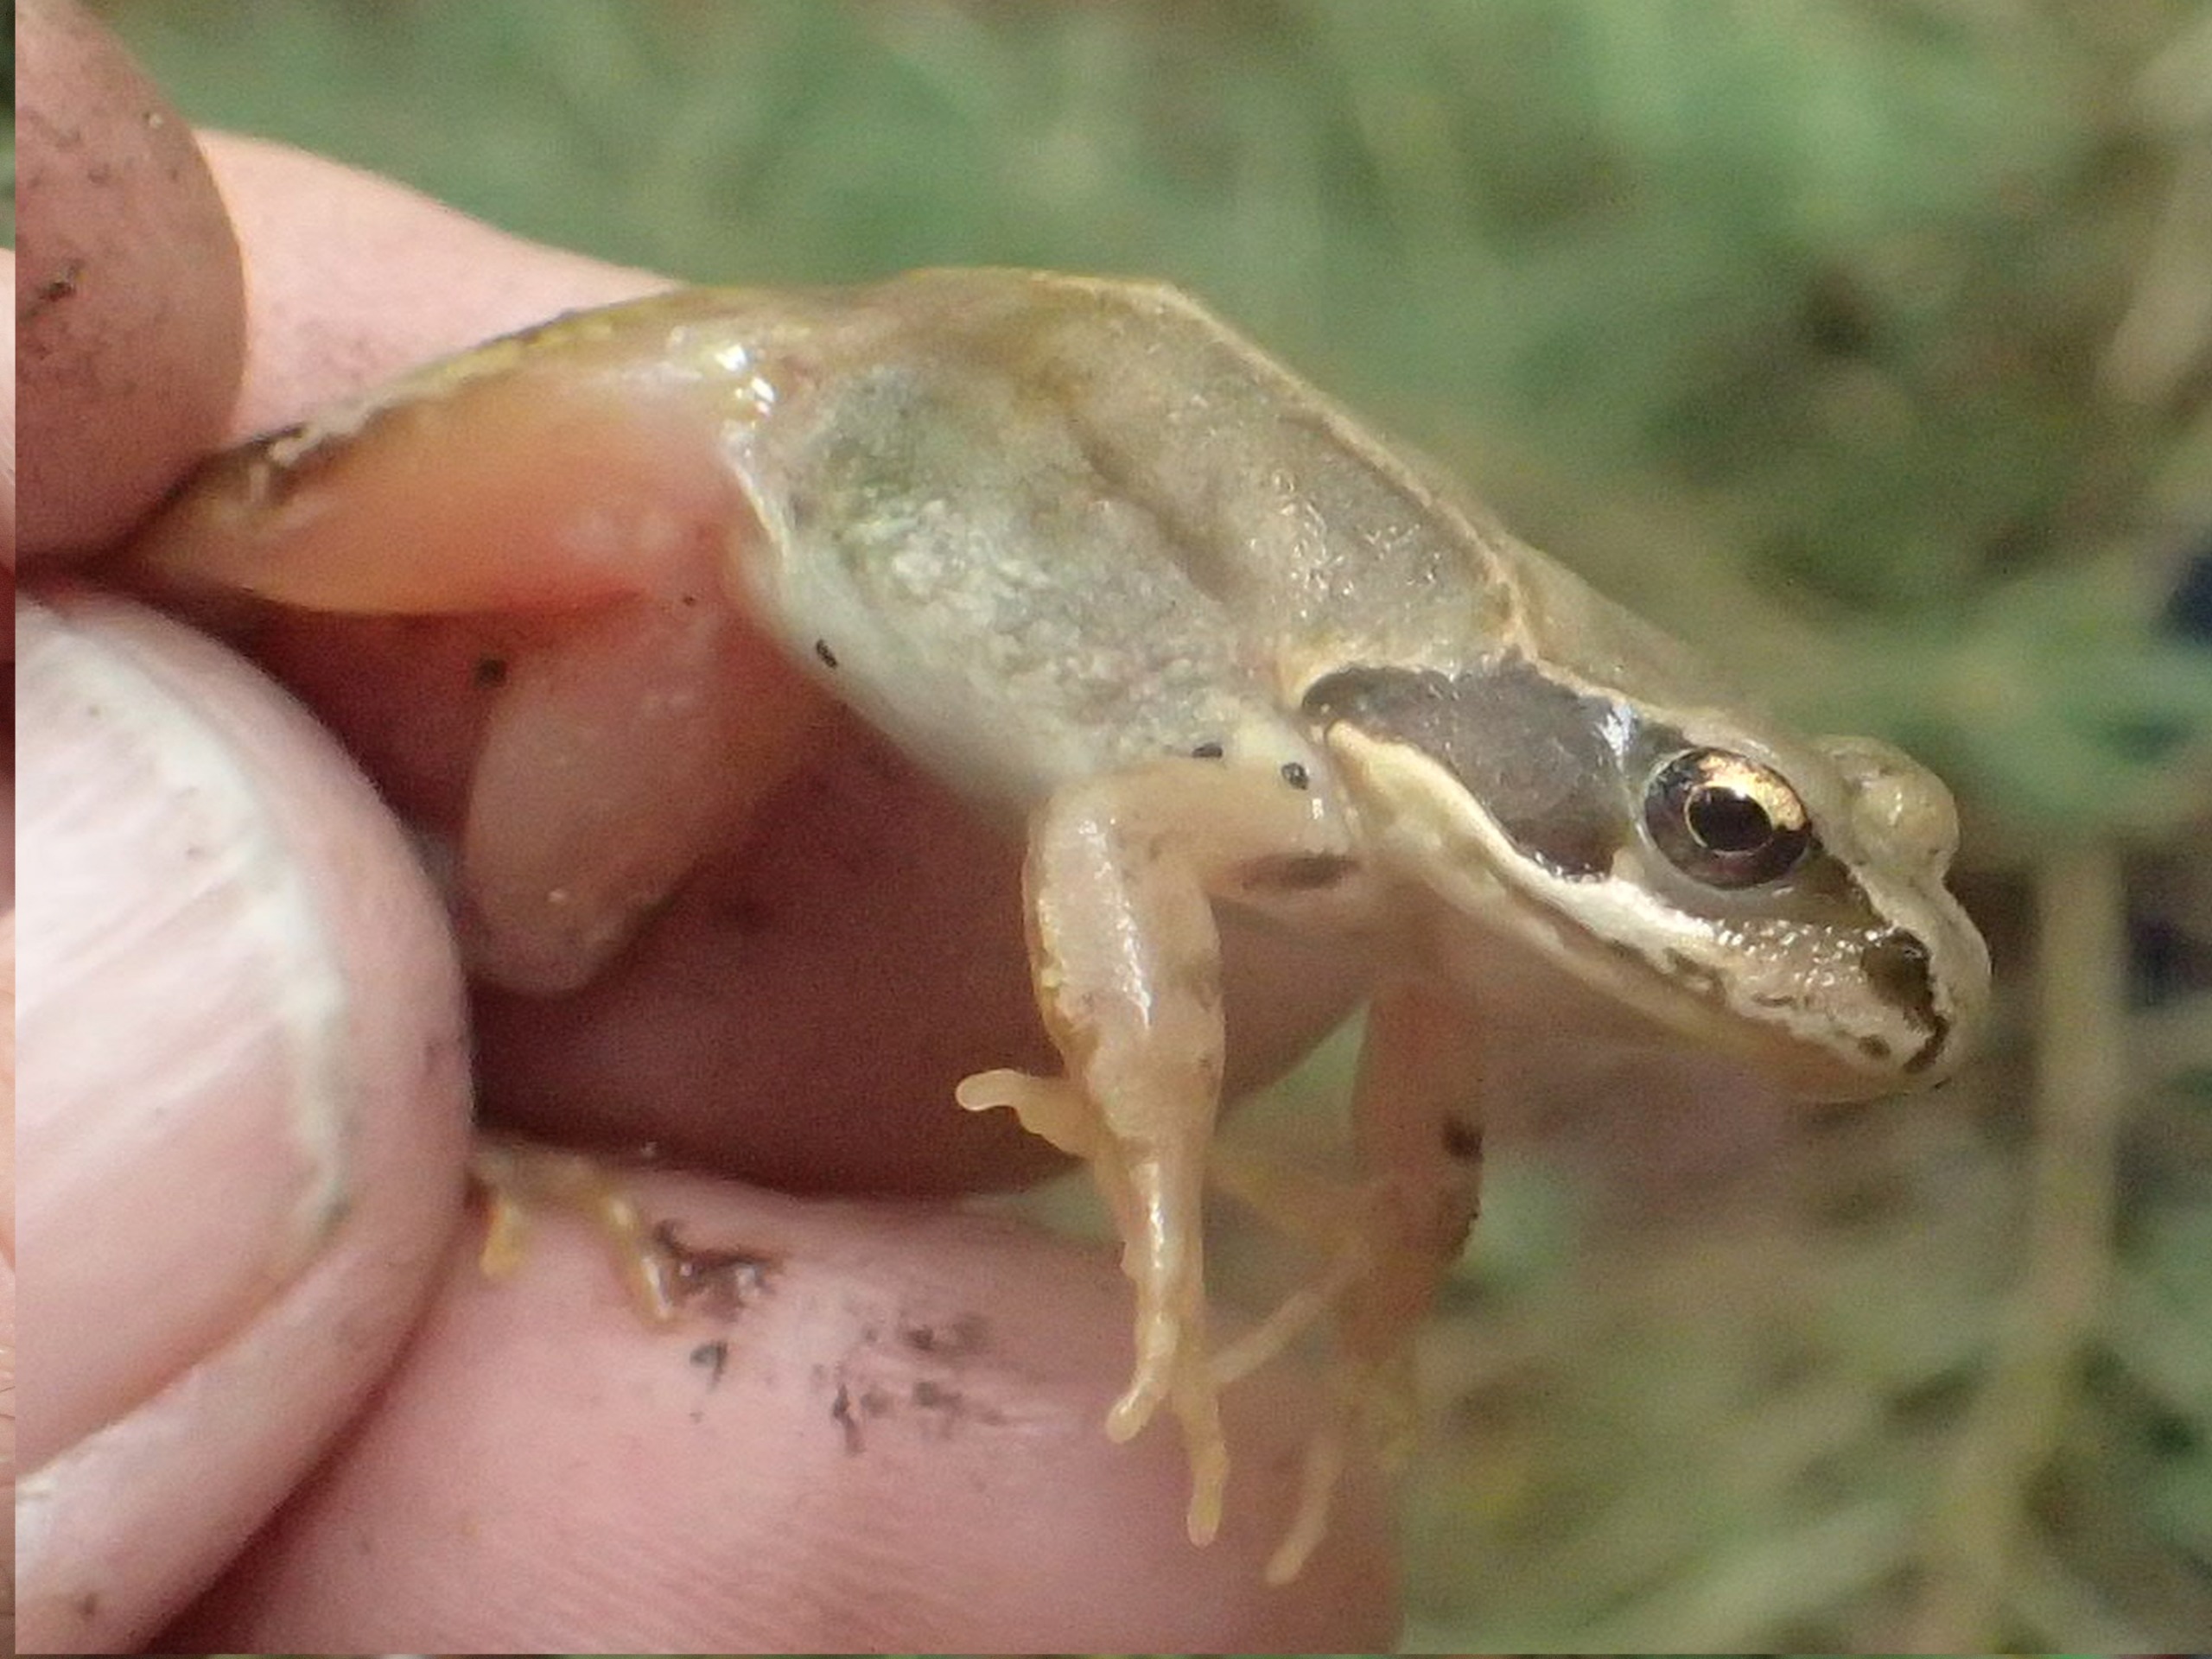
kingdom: Animalia
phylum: Chordata
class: Amphibia
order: Anura
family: Ranidae
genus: Rana
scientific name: Rana temporaria
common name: Butsnudet frø
